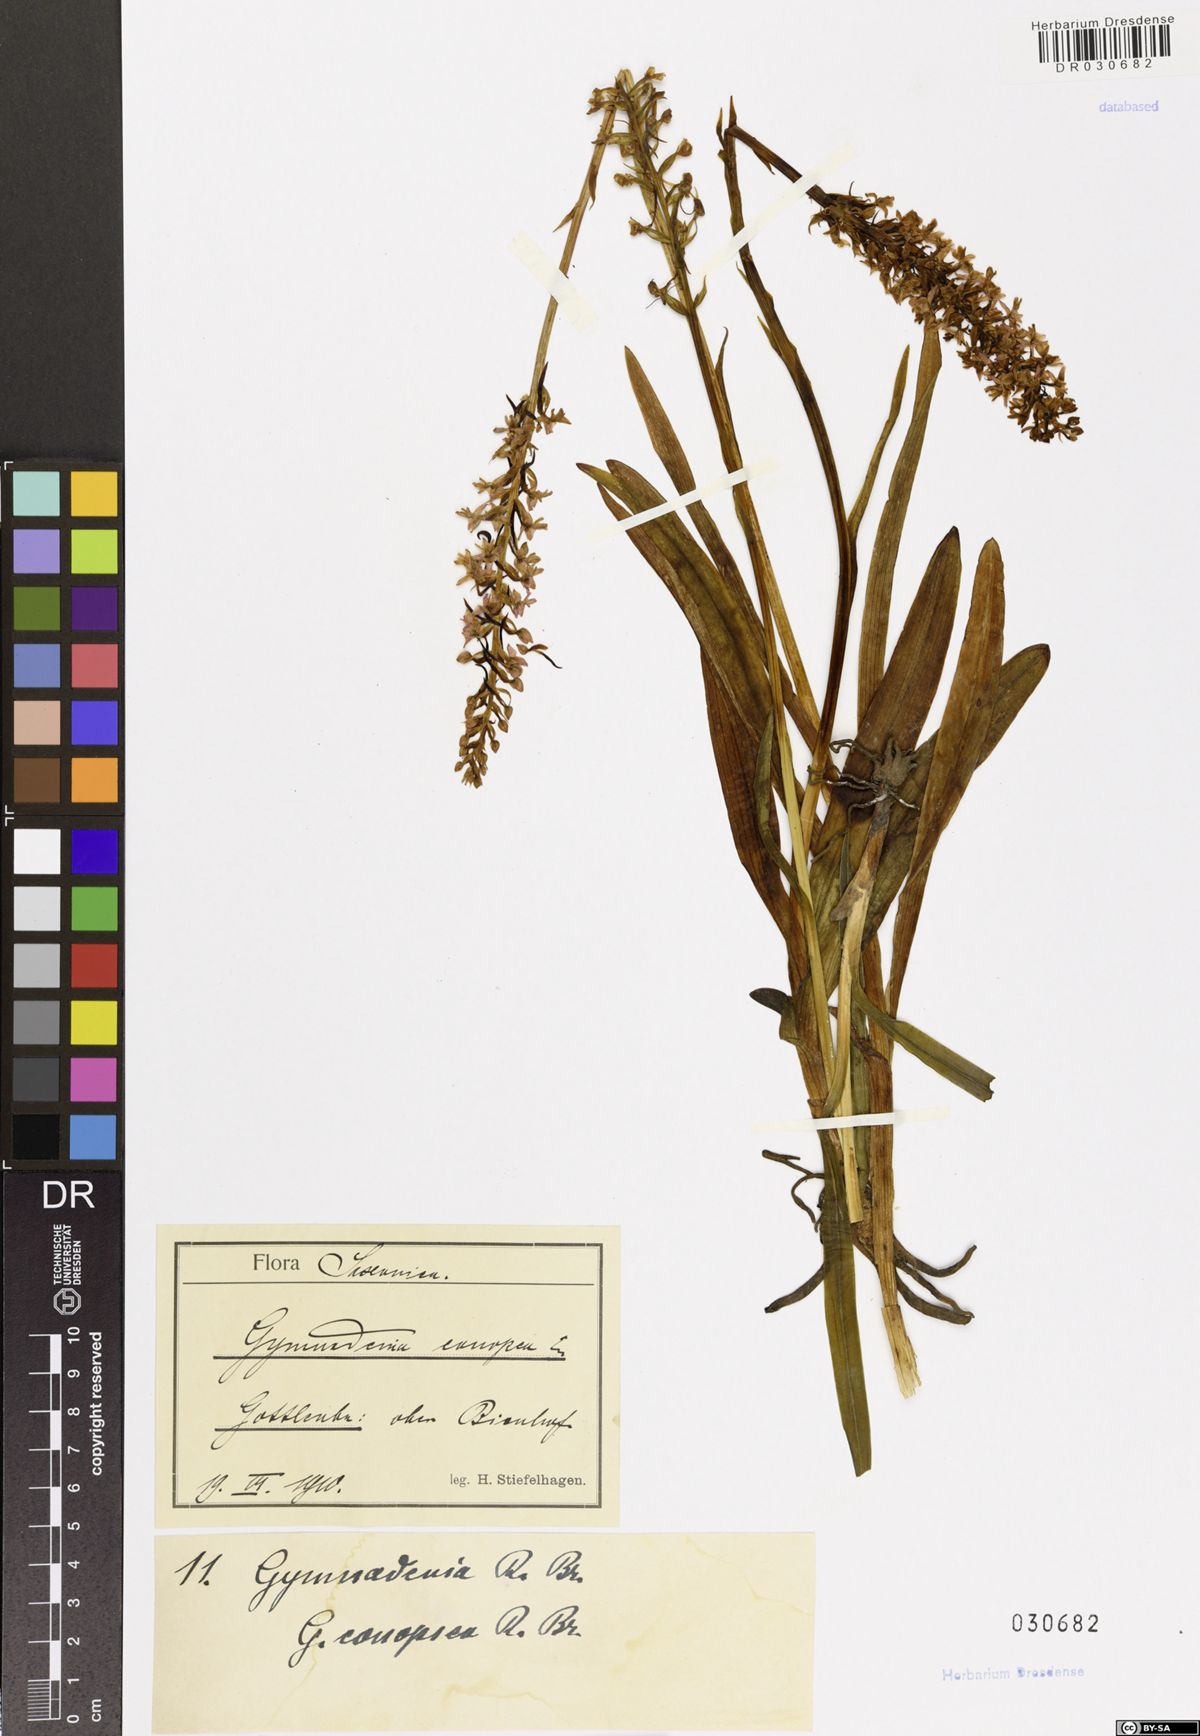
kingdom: Plantae
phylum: Tracheophyta
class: Liliopsida
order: Asparagales
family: Orchidaceae
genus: Gymnadenia
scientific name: Gymnadenia conopsea
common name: Fragrant orchid
